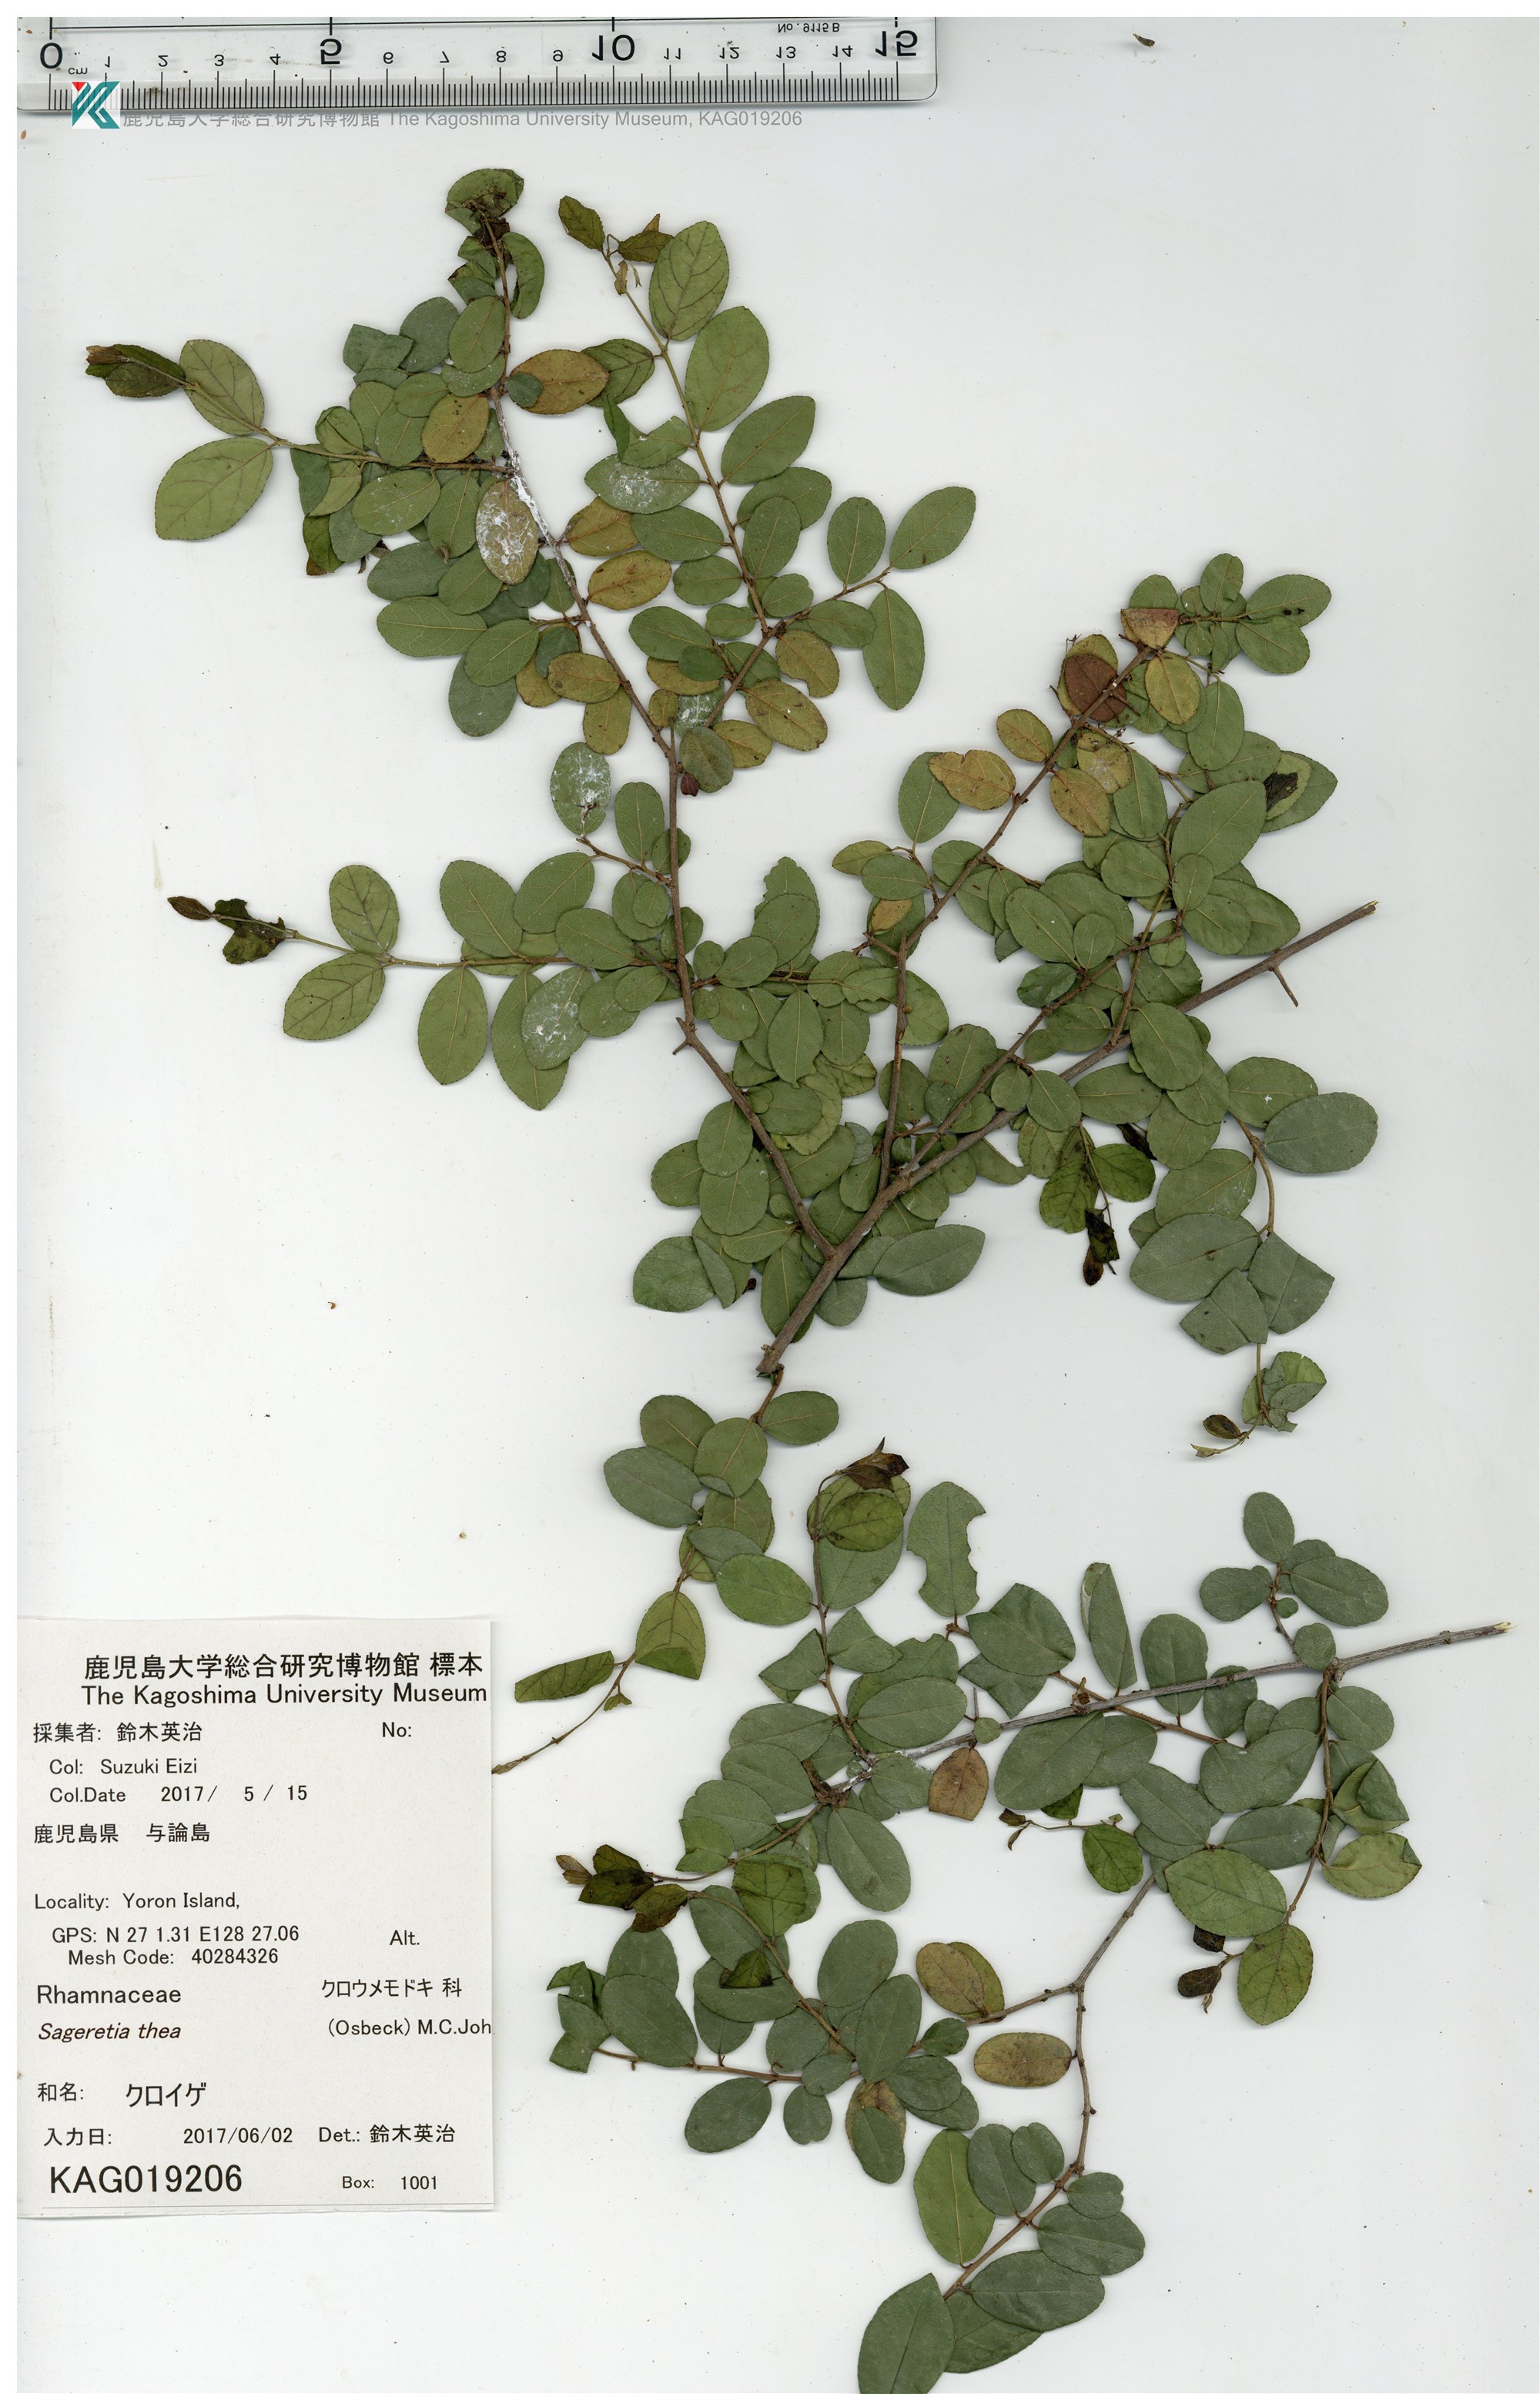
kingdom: Plantae
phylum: Tracheophyta
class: Magnoliopsida
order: Rosales
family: Rhamnaceae
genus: Sageretia
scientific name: Sageretia thea
